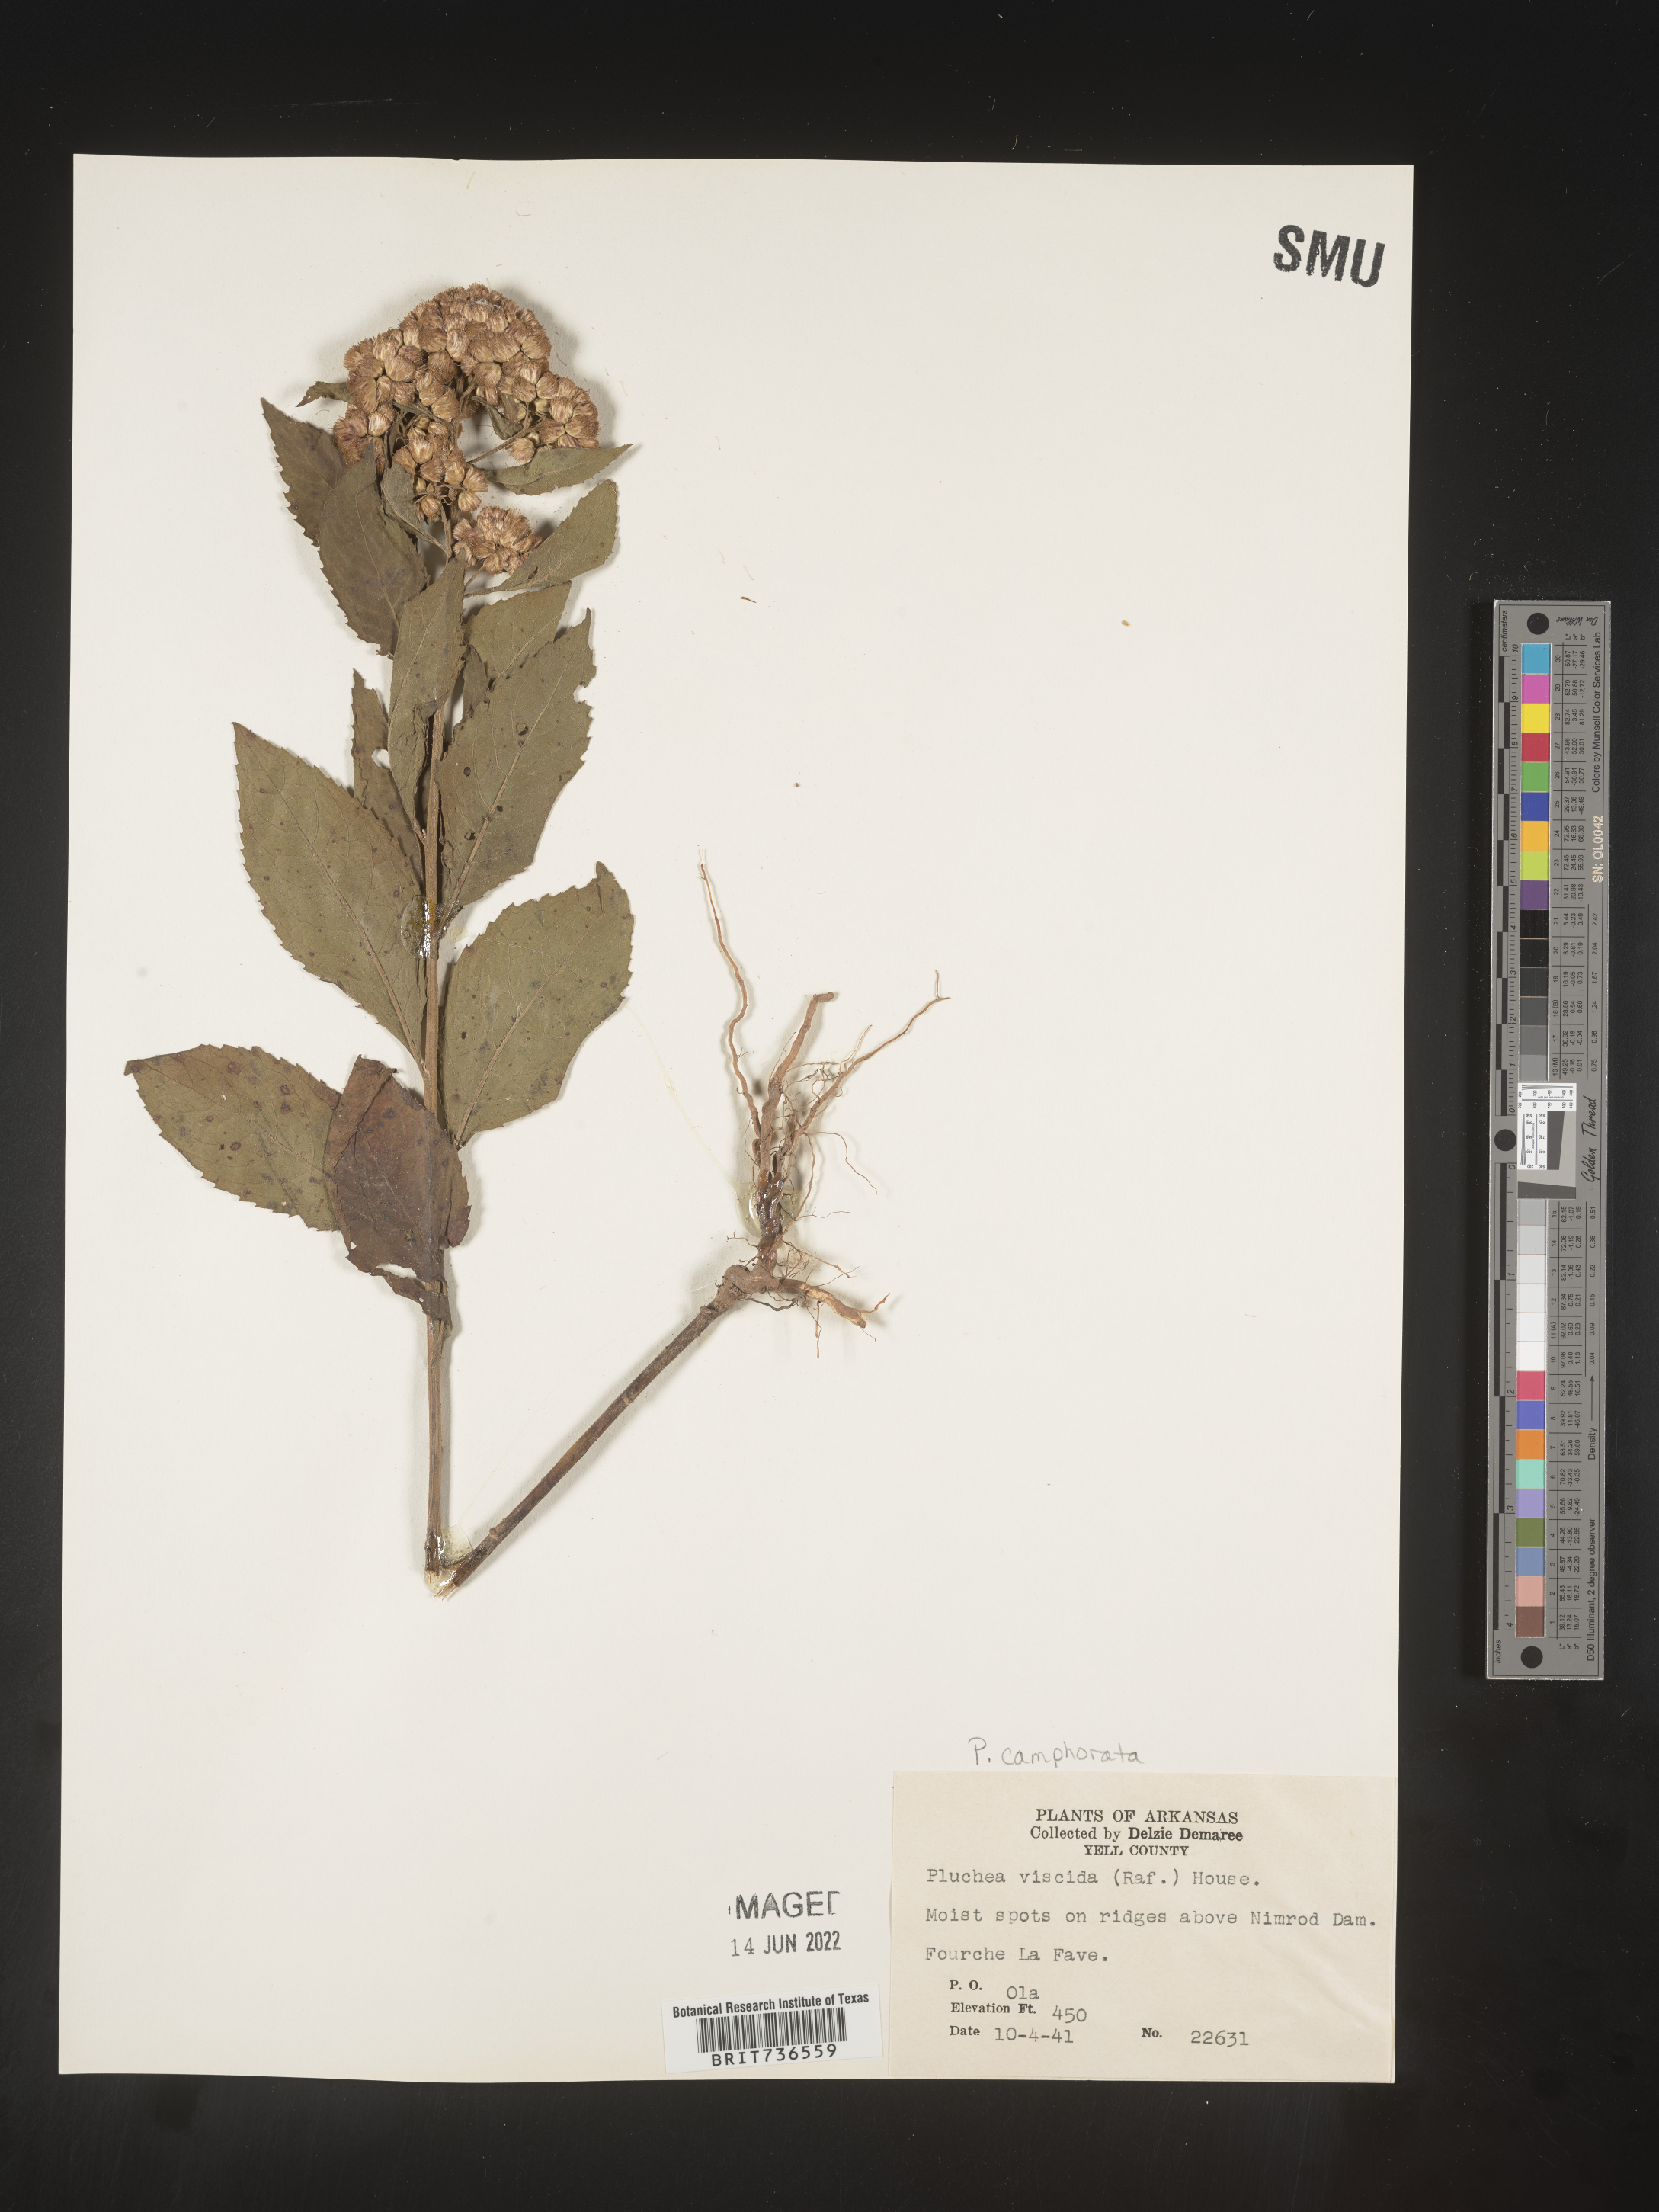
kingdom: Plantae
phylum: Tracheophyta
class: Magnoliopsida
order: Asterales
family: Asteraceae
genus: Pluchea
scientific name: Pluchea camphorata
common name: Camphor pluchea
